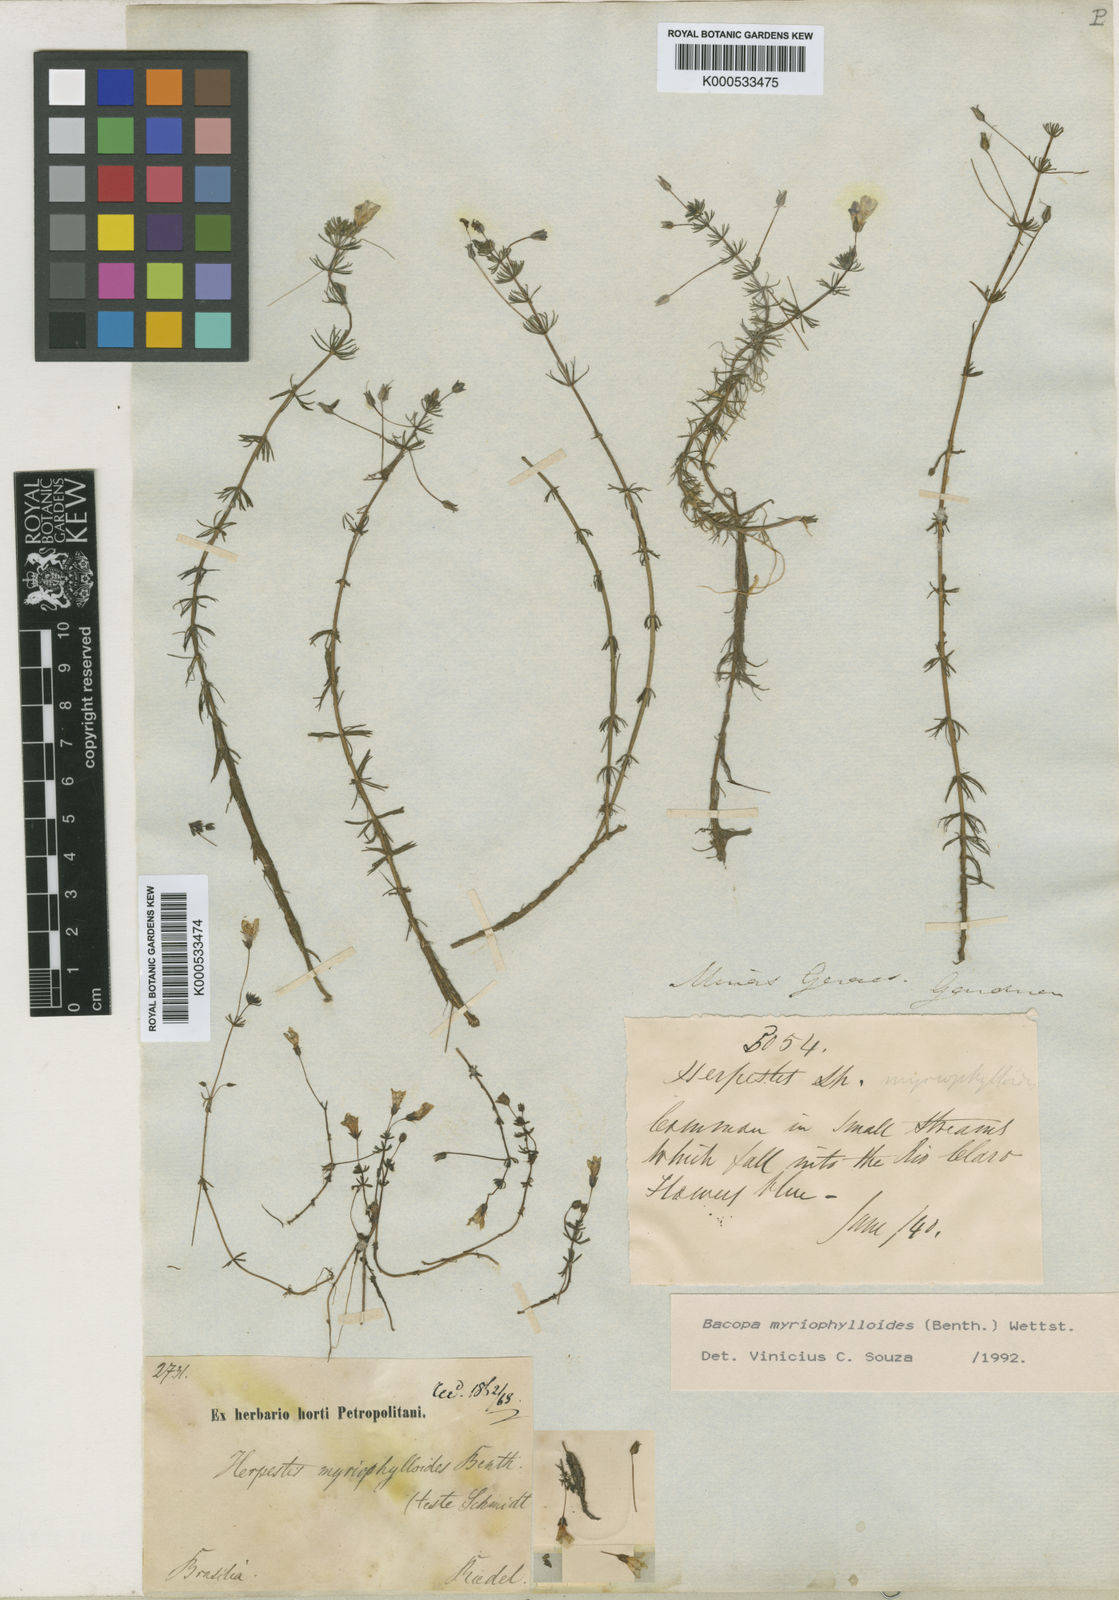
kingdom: Plantae
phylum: Tracheophyta
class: Magnoliopsida
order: Lamiales
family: Plantaginaceae
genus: Bacopa
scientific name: Bacopa myriophylloides
